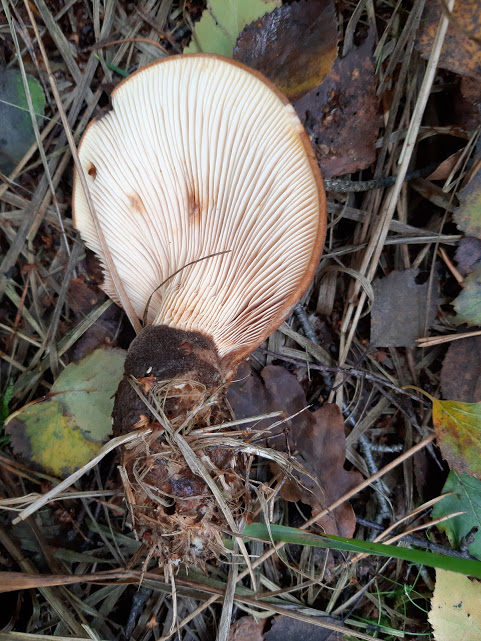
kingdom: Fungi
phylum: Basidiomycota
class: Agaricomycetes
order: Boletales
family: Tapinellaceae
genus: Tapinella
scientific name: Tapinella atrotomentosa
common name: sortfiltet viftesvamp
